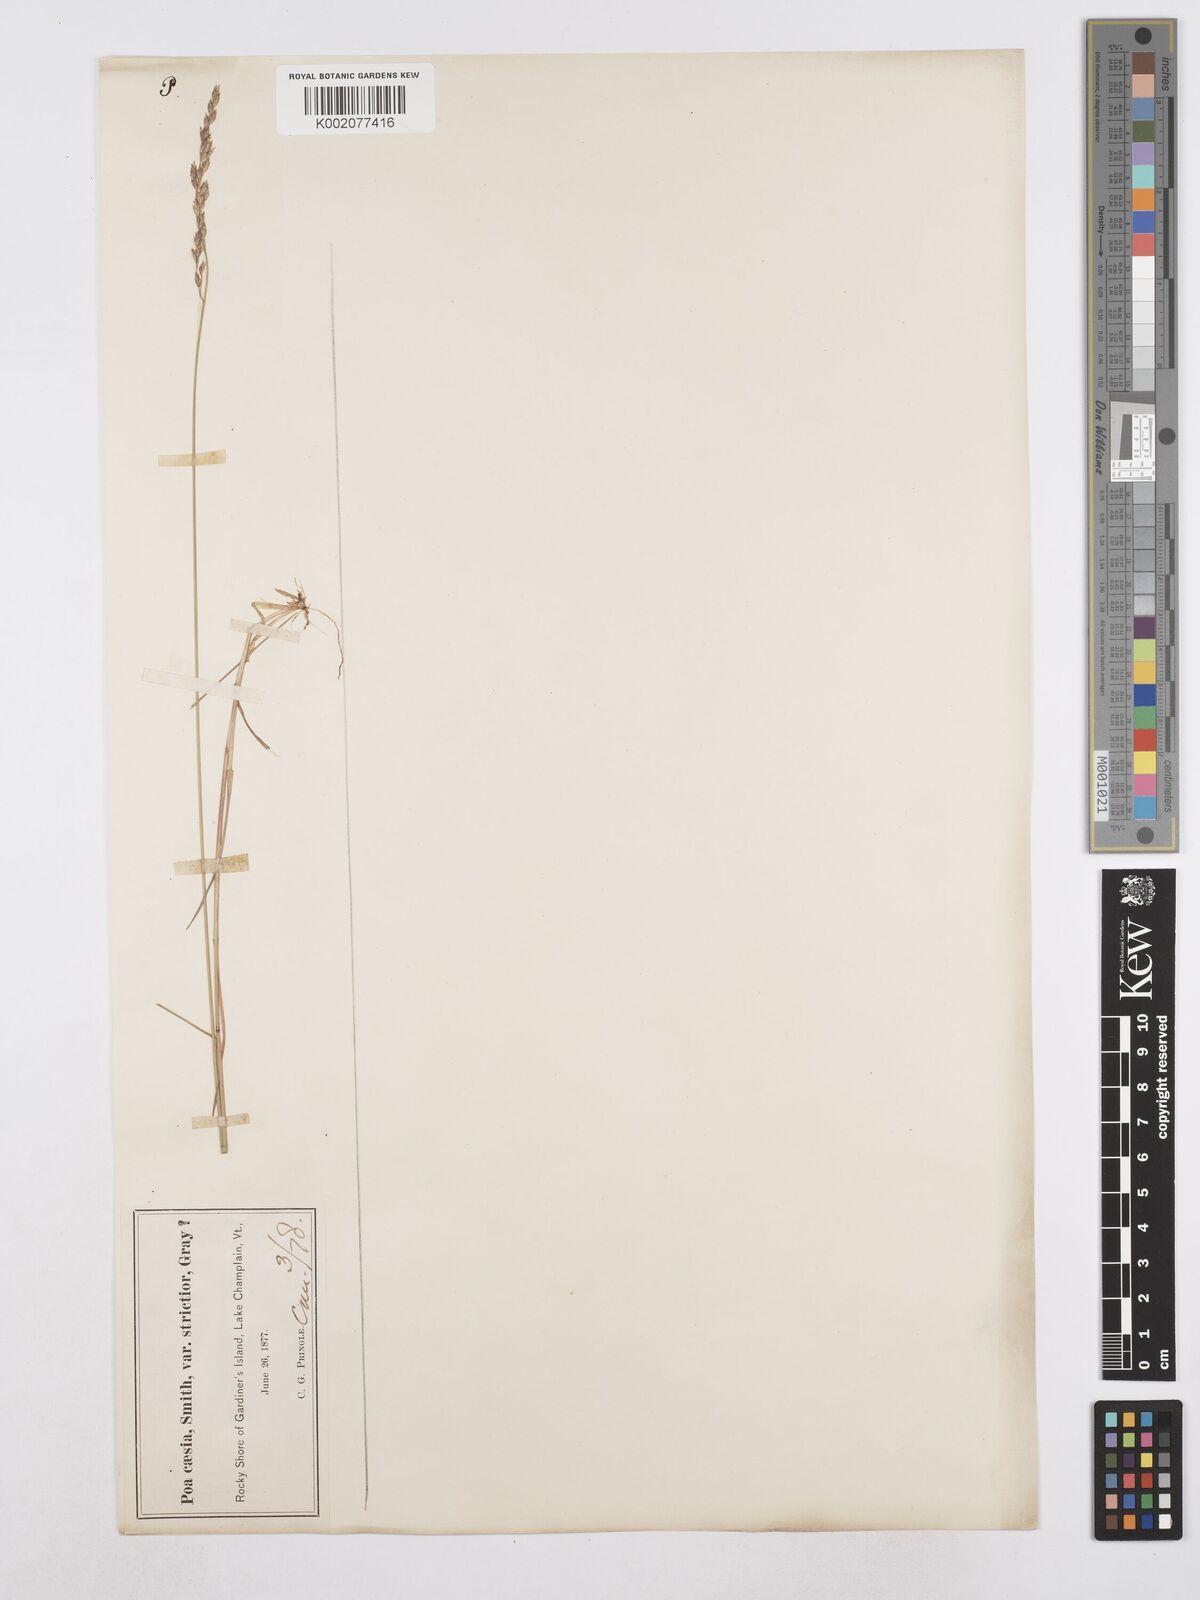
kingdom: Plantae
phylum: Tracheophyta
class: Liliopsida
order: Poales
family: Poaceae
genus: Poa
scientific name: Poa glauca
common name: Glaucous bluegrass
